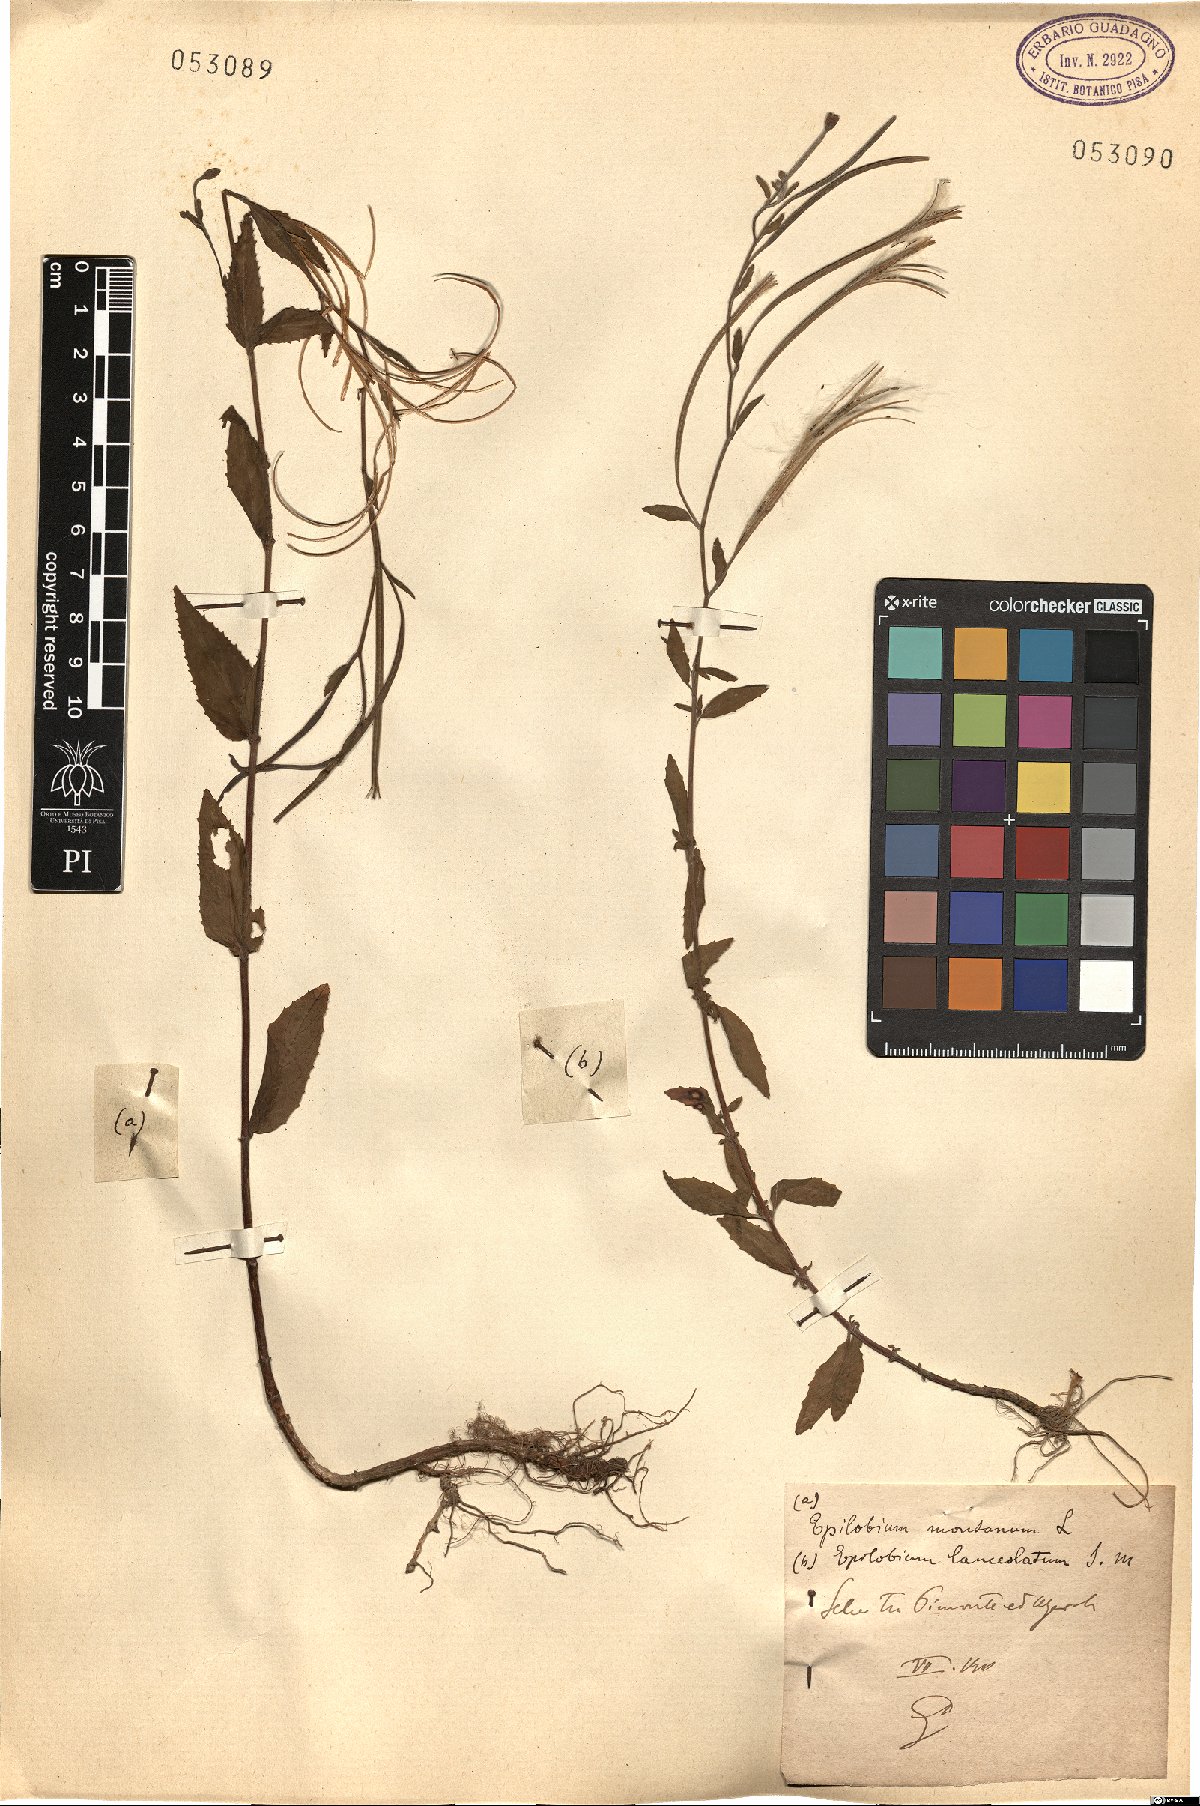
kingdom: Plantae
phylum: Tracheophyta
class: Magnoliopsida
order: Myrtales
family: Onagraceae
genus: Epilobium
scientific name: Epilobium montanum
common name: Broad-leaved willowherb
